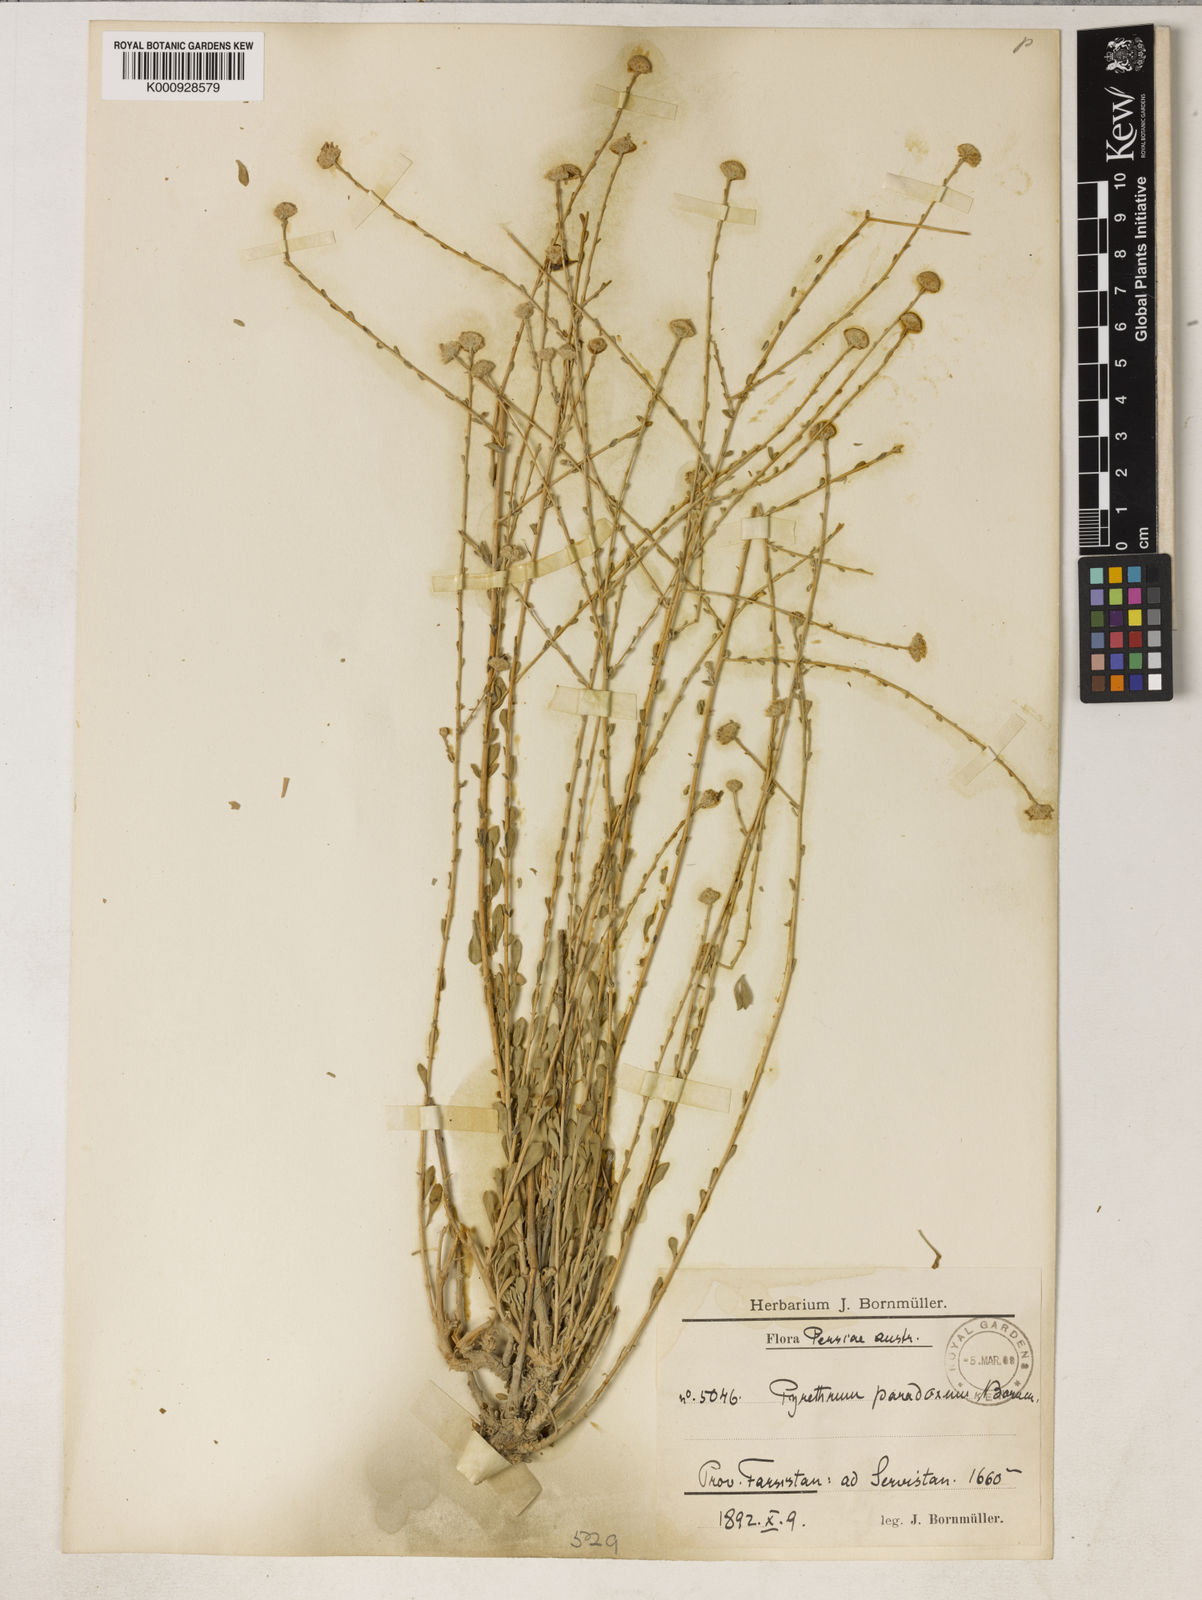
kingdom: Plantae
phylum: Tracheophyta
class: Magnoliopsida
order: Asterales
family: Asteraceae
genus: Tanacetum
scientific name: Tanacetum paradoxum
